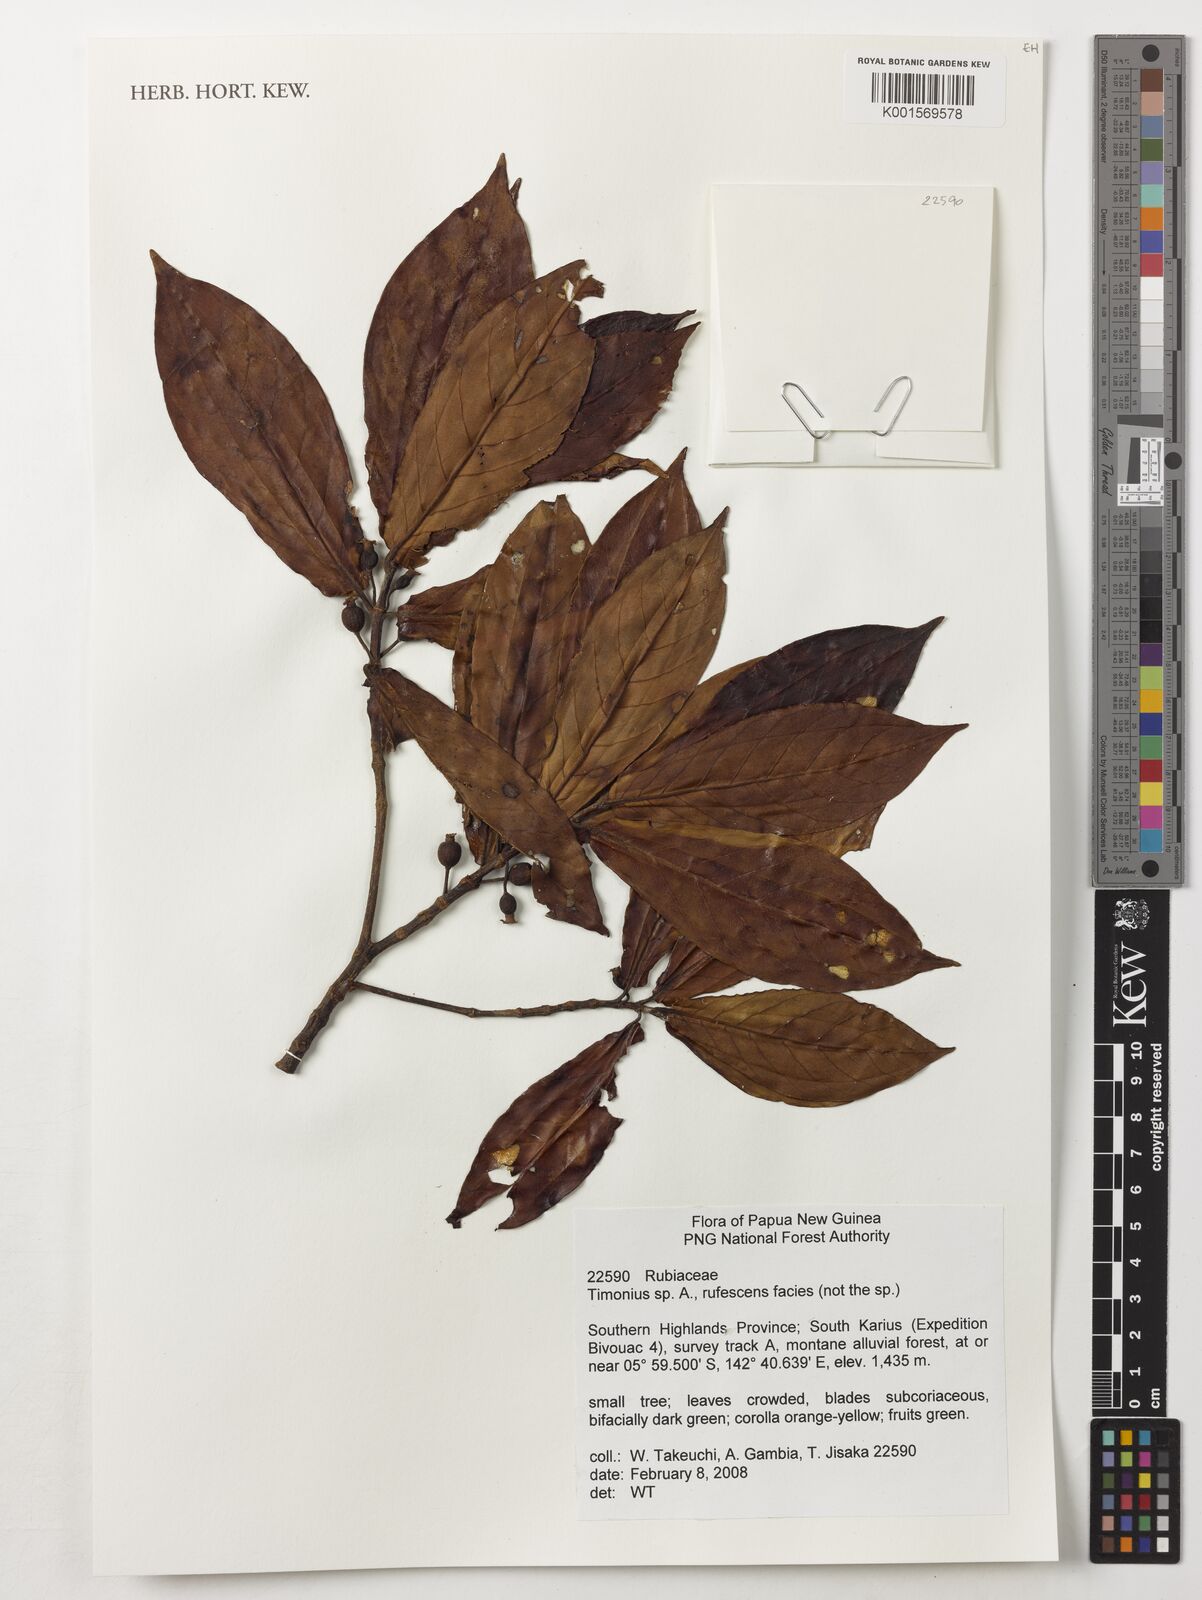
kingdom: Plantae
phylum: Tracheophyta
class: Magnoliopsida
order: Gentianales
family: Rubiaceae
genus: Timonius
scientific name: Timonius
